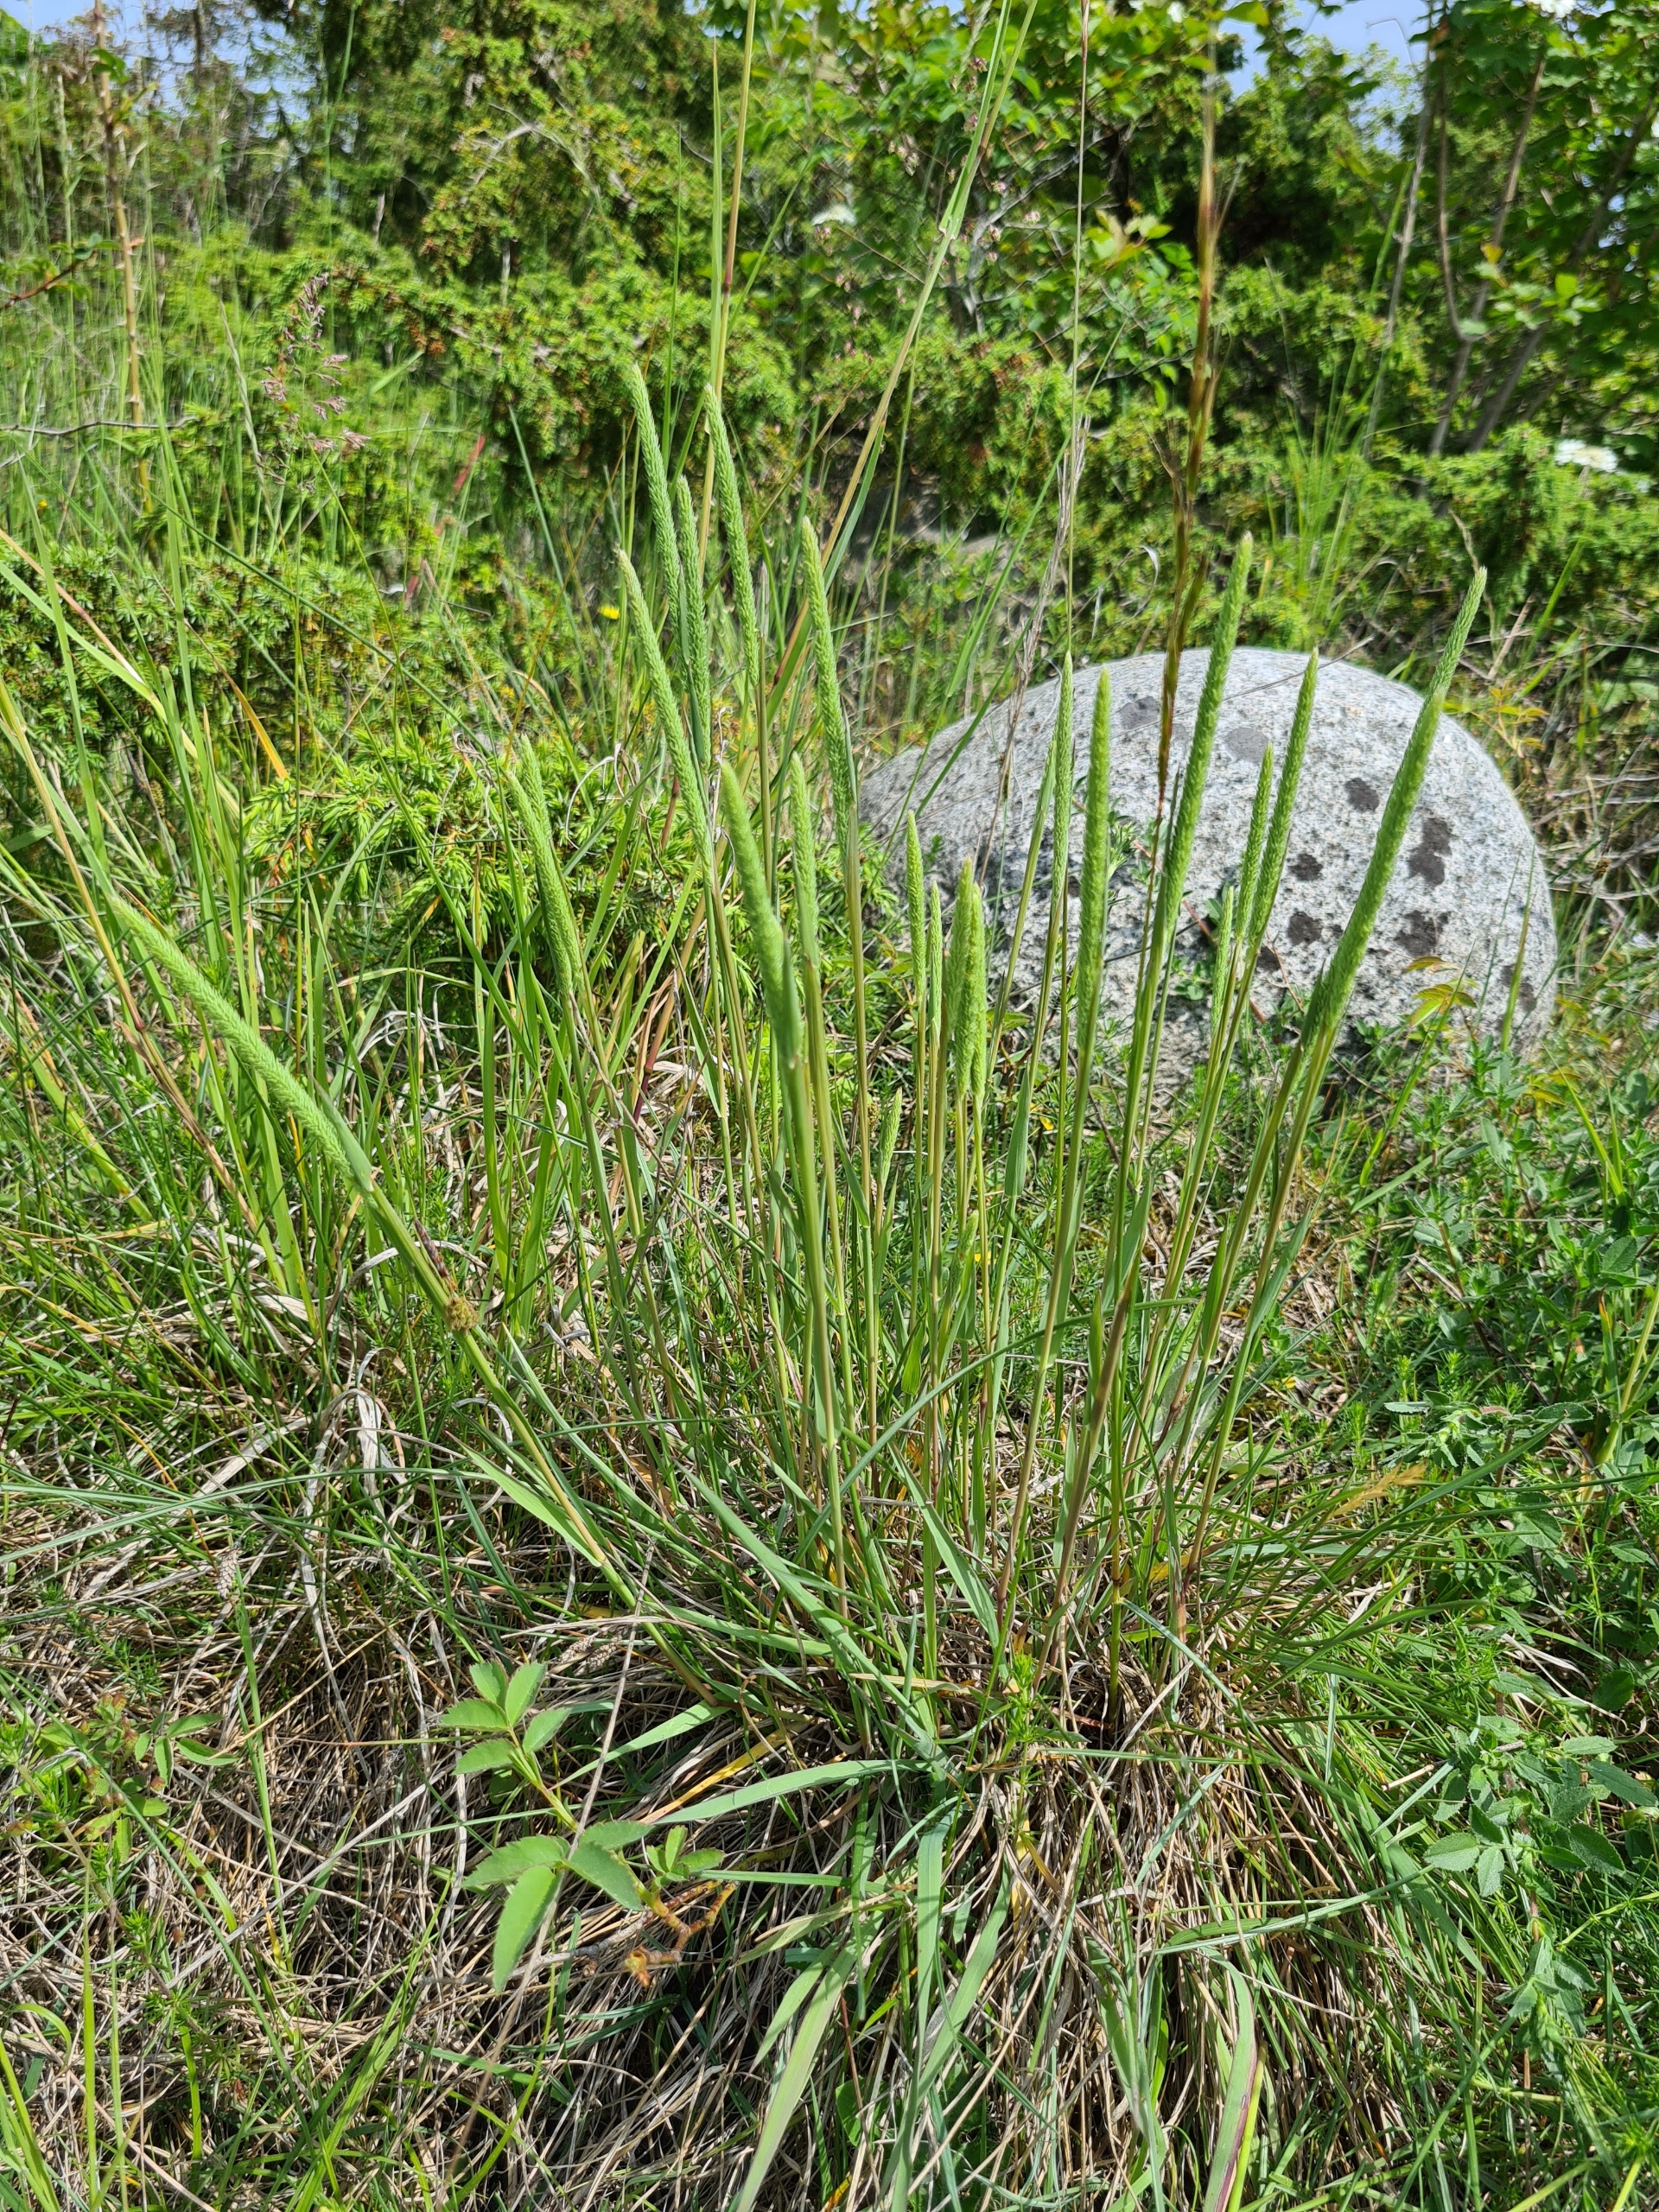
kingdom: Plantae
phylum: Tracheophyta
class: Liliopsida
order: Poales
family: Poaceae
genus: Phleum
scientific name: Phleum phleoides
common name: Glat rottehale
